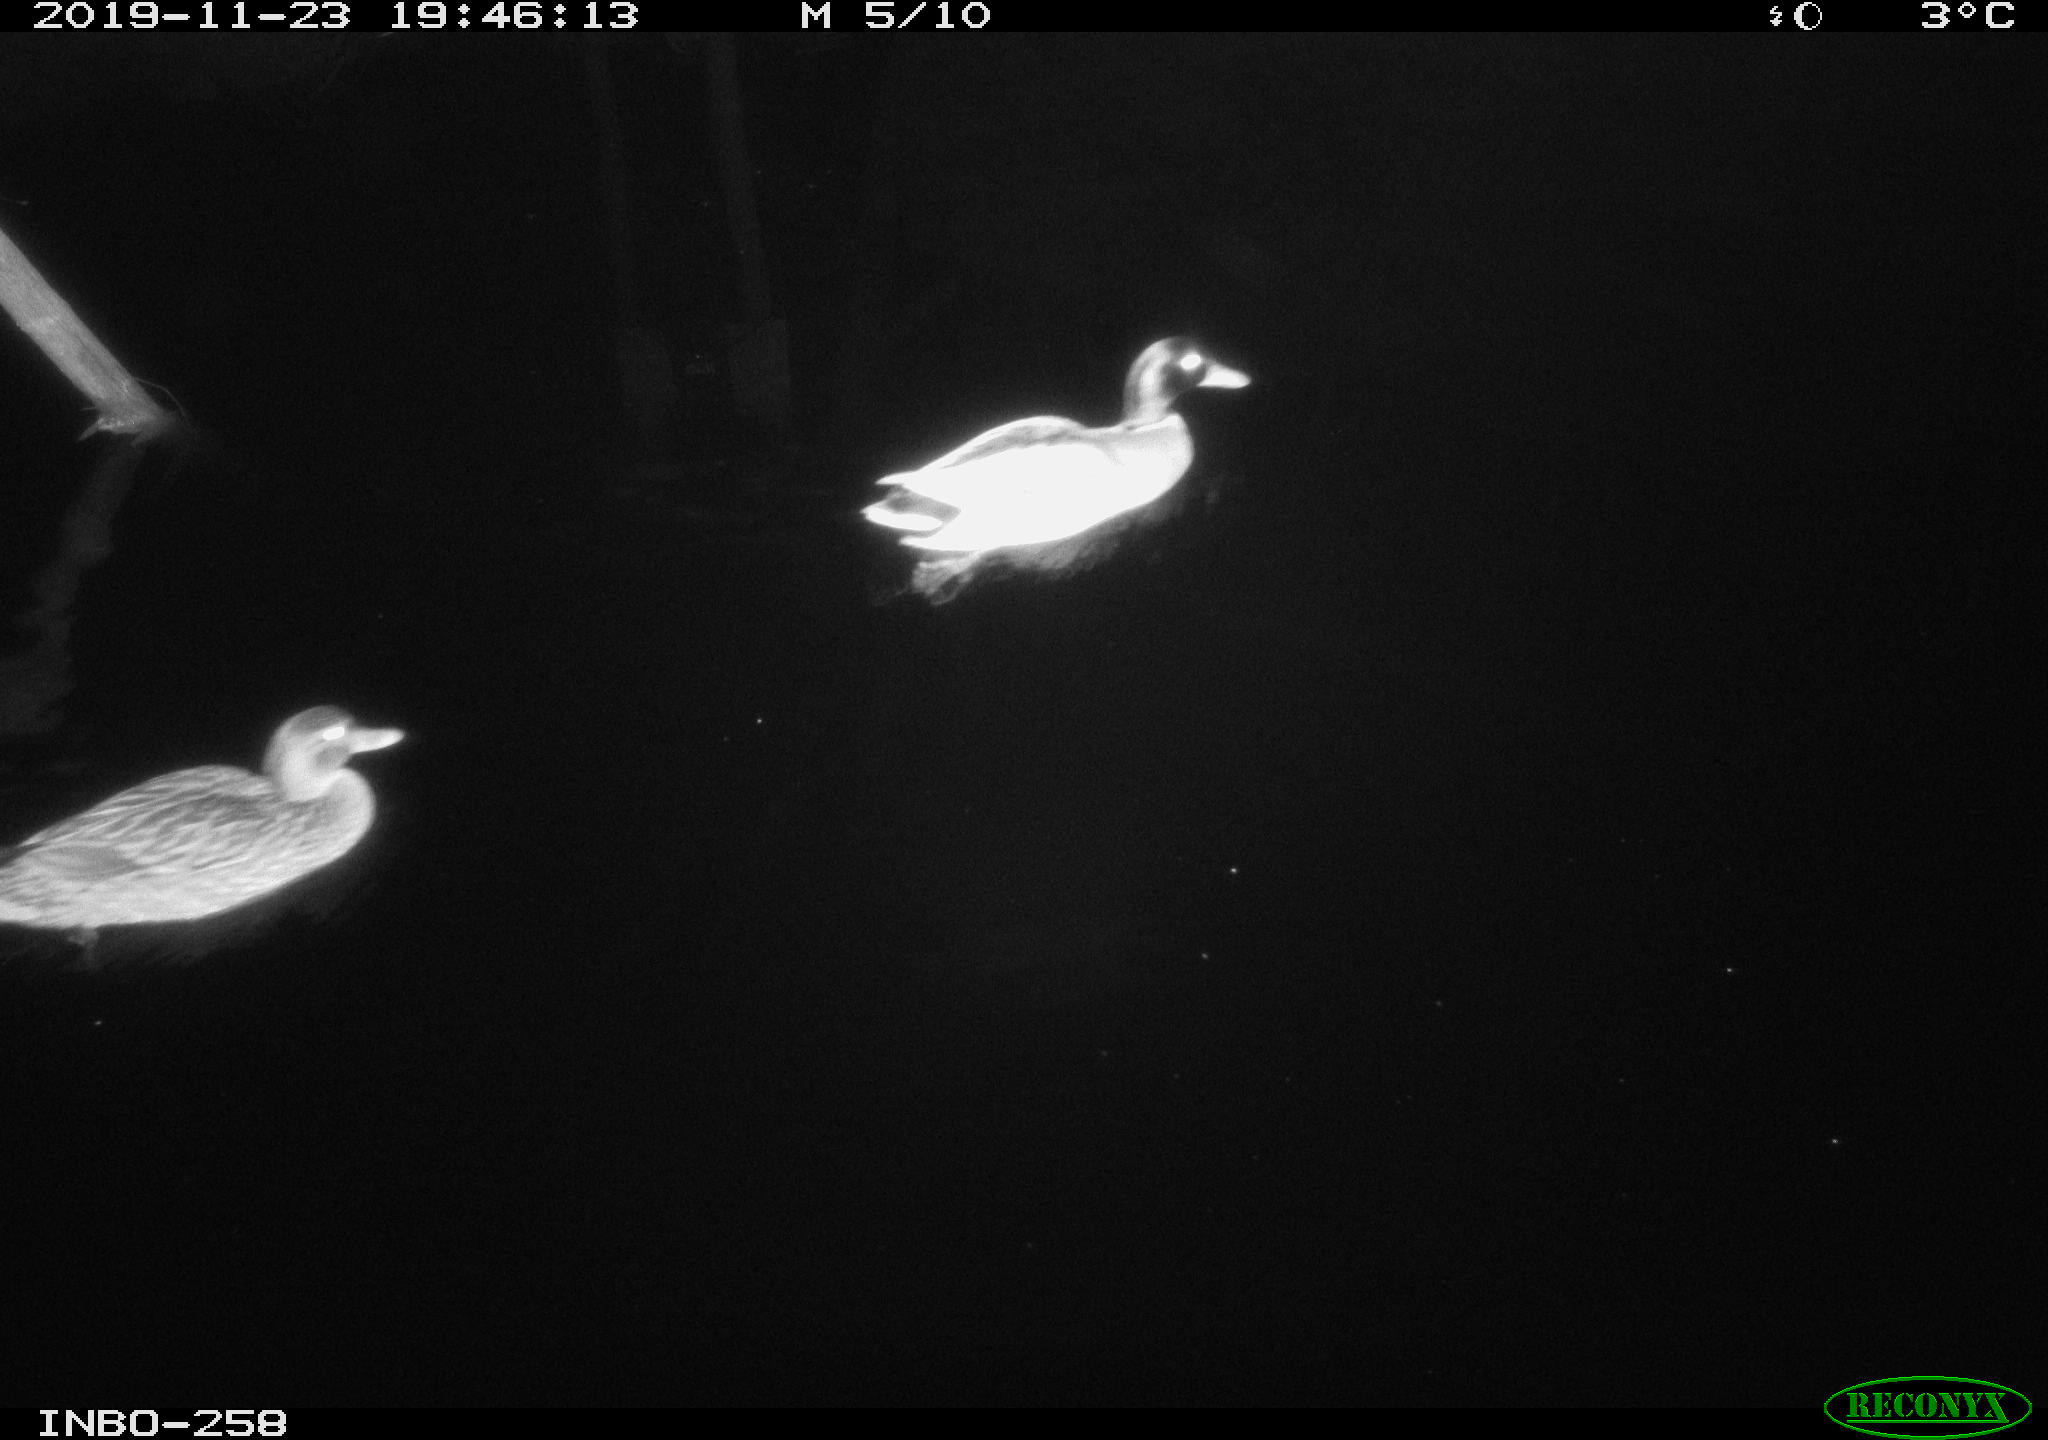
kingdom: Animalia
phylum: Chordata
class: Aves
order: Anseriformes
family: Anatidae
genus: Anas
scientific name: Anas platyrhynchos
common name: Mallard
